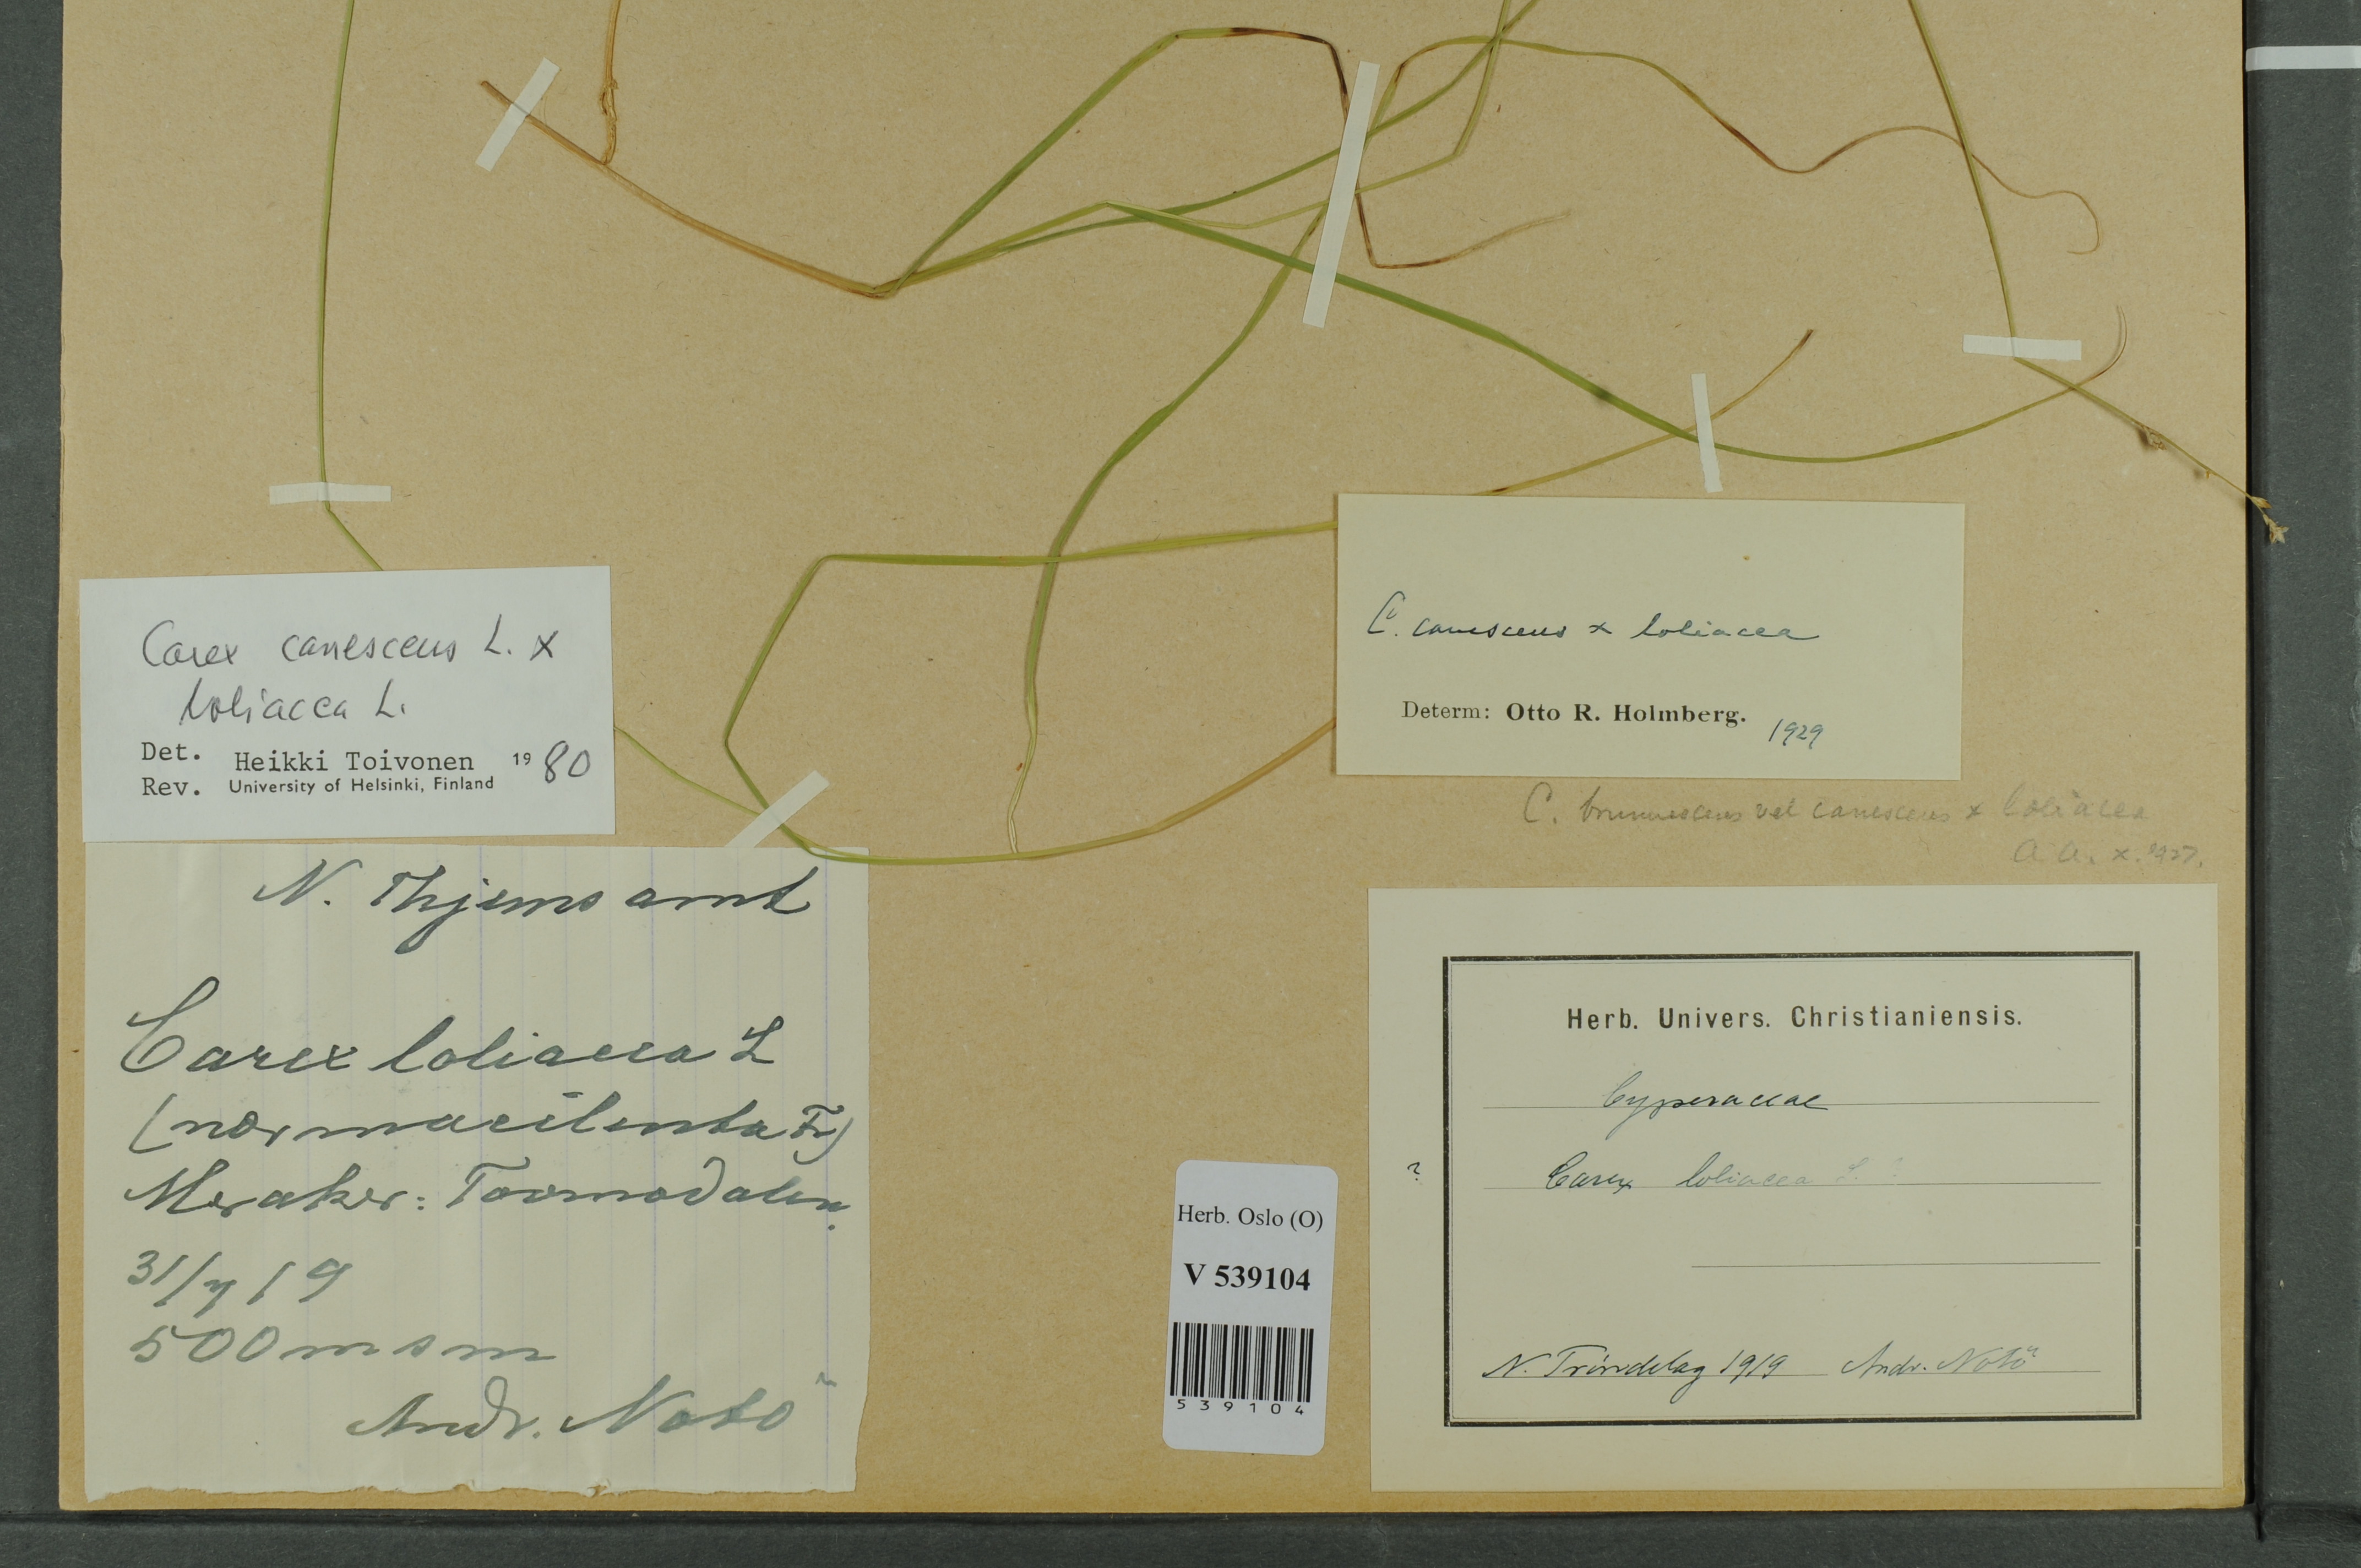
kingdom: Plantae
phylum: Tracheophyta
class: Liliopsida
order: Poales
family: Cyperaceae
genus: Carex
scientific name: Carex
